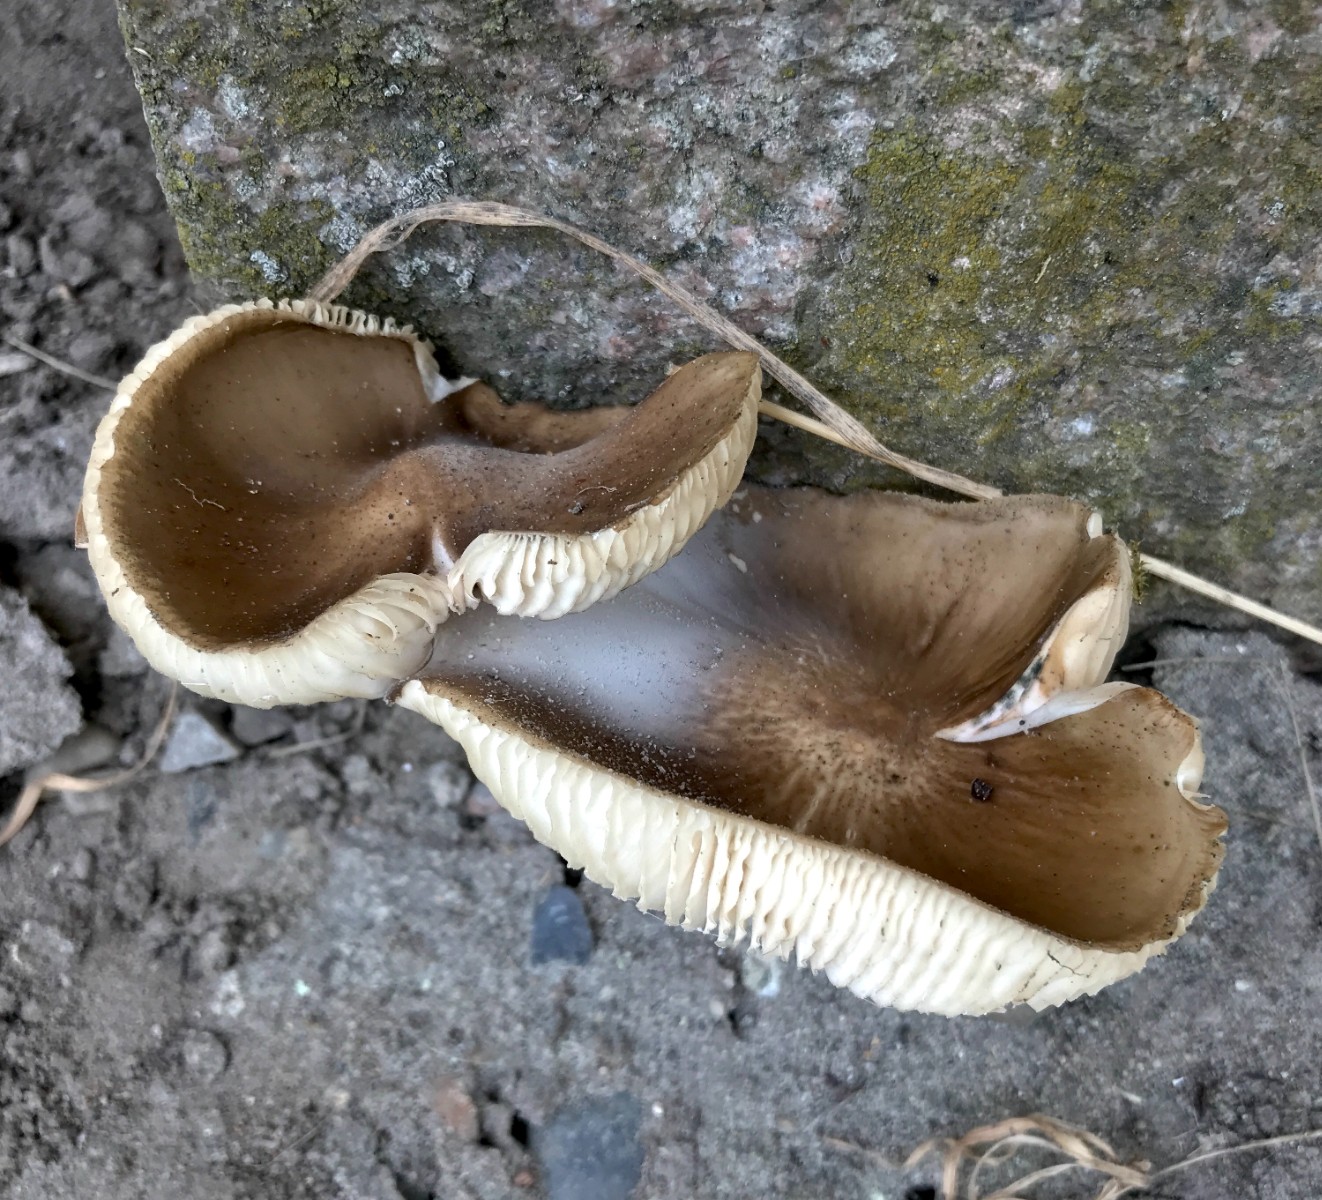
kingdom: Fungi
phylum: Basidiomycota
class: Agaricomycetes
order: Agaricales
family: Physalacriaceae
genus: Hymenopellis
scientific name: Hymenopellis radicata
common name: almindelig pælerodshat
